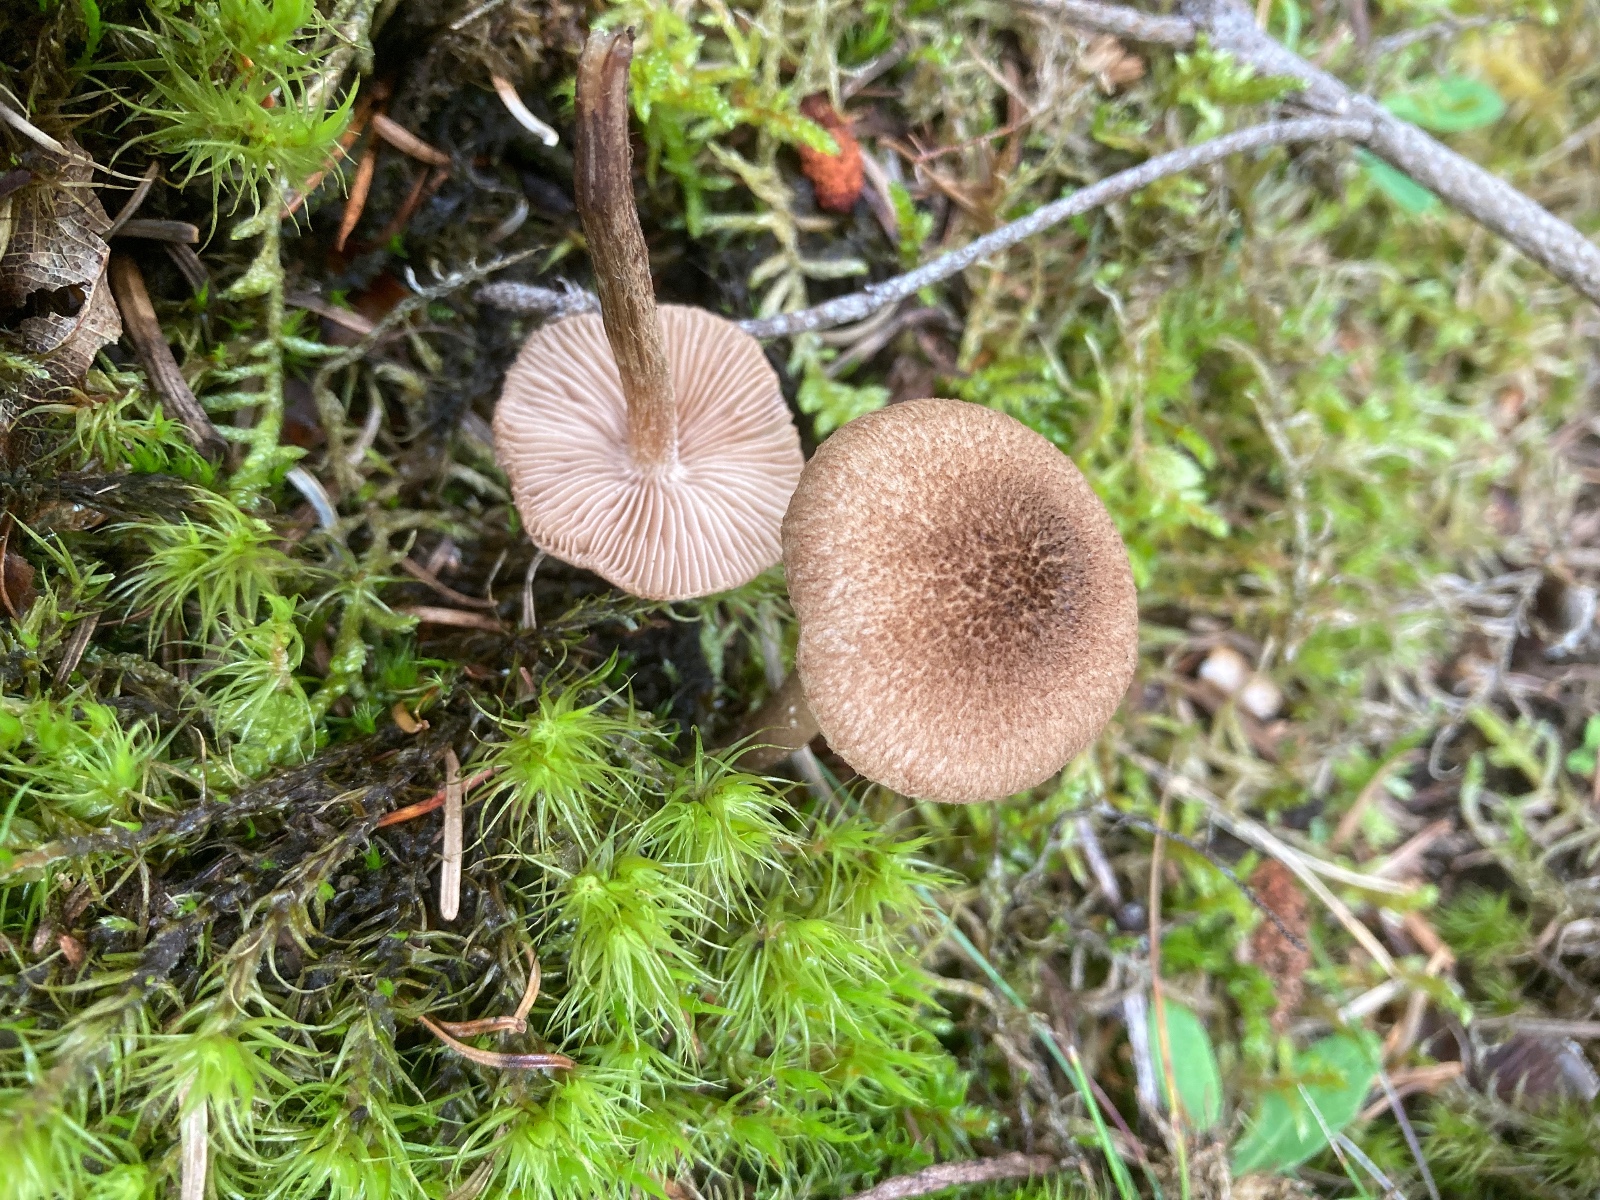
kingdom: Fungi
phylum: Basidiomycota
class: Agaricomycetes
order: Agaricales
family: Inocybaceae
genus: Inocybe
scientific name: Inocybe
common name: trævlhat
